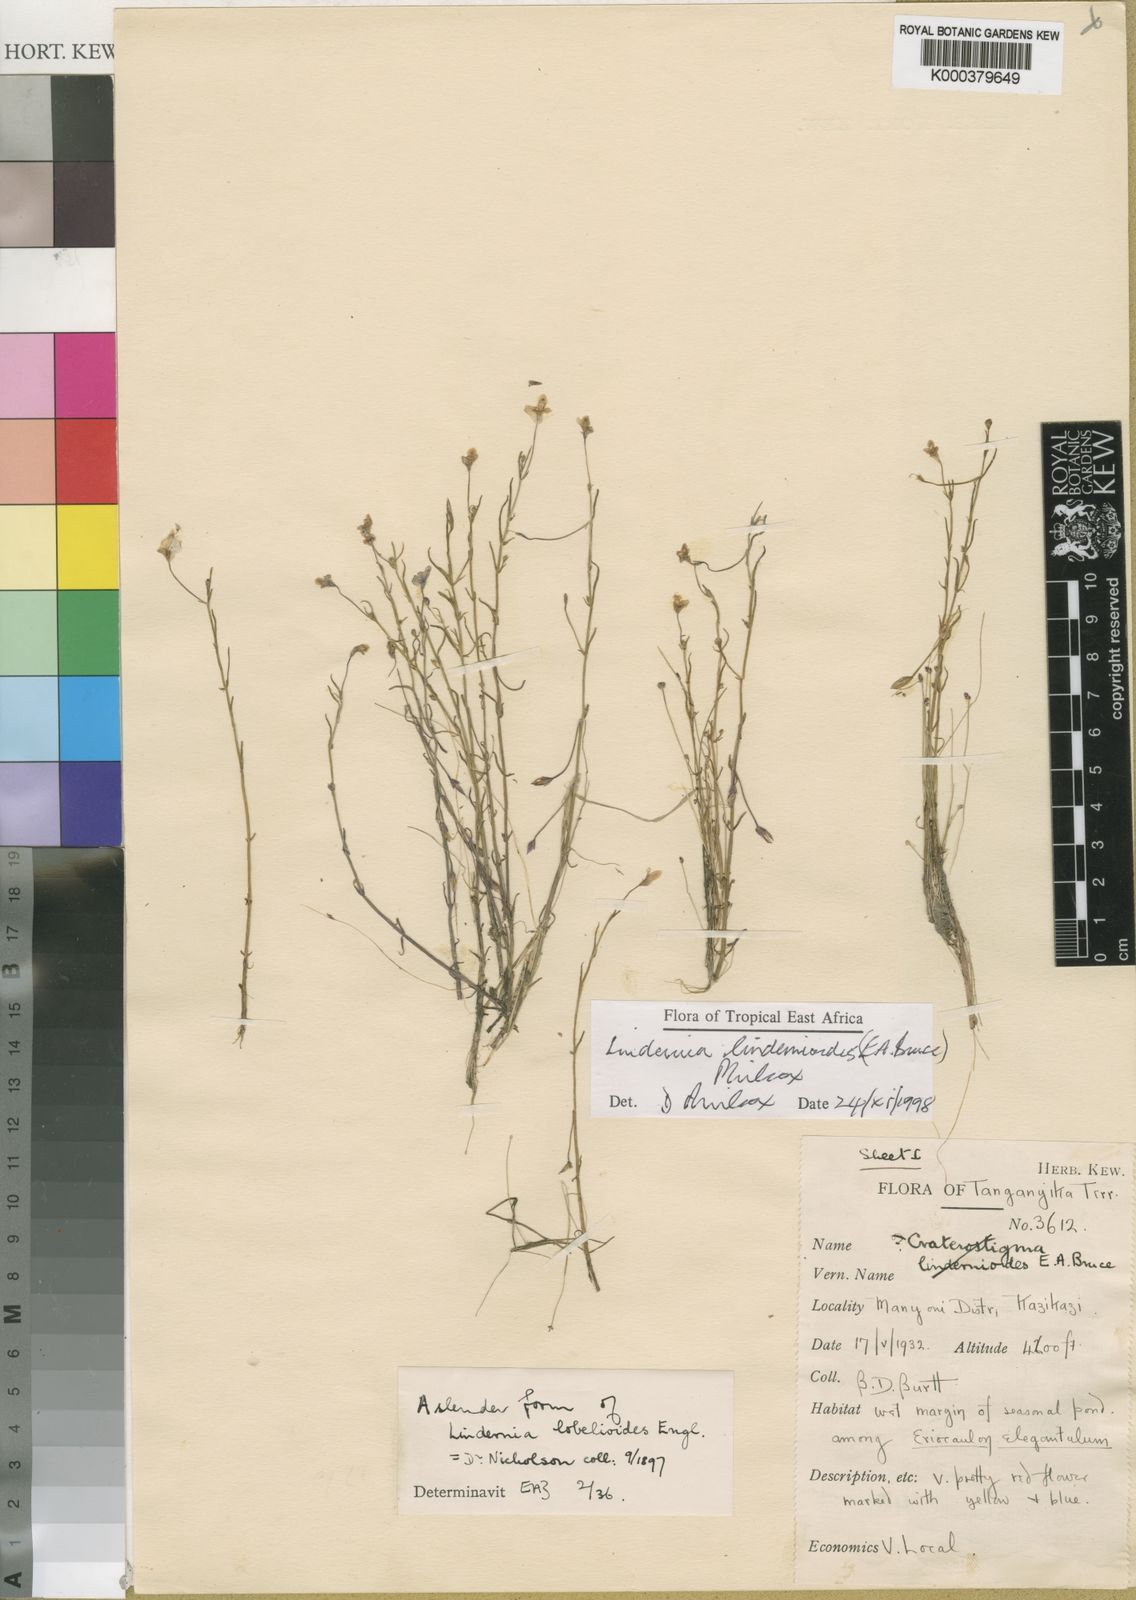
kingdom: Plantae
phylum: Tracheophyta
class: Magnoliopsida
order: Lamiales
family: Linderniaceae
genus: Craterostigma
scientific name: Craterostigma lindernioides
